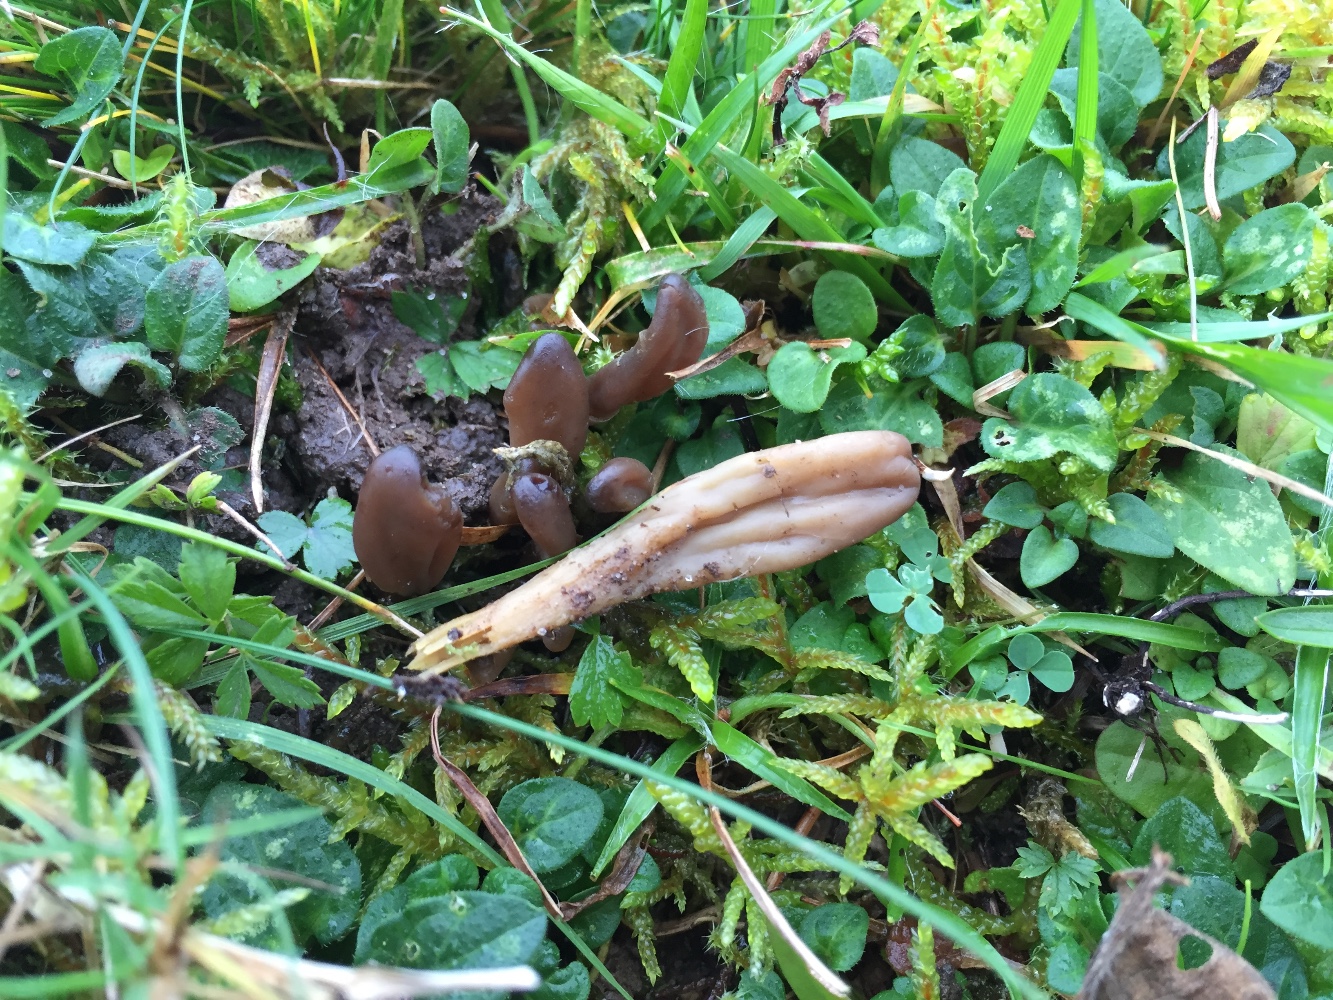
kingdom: Fungi
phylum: Ascomycota
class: Leotiomycetes
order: Leotiales
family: Leotiaceae
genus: Microglossum
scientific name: Microglossum olivaceum
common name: olivenbrun farvetunge
